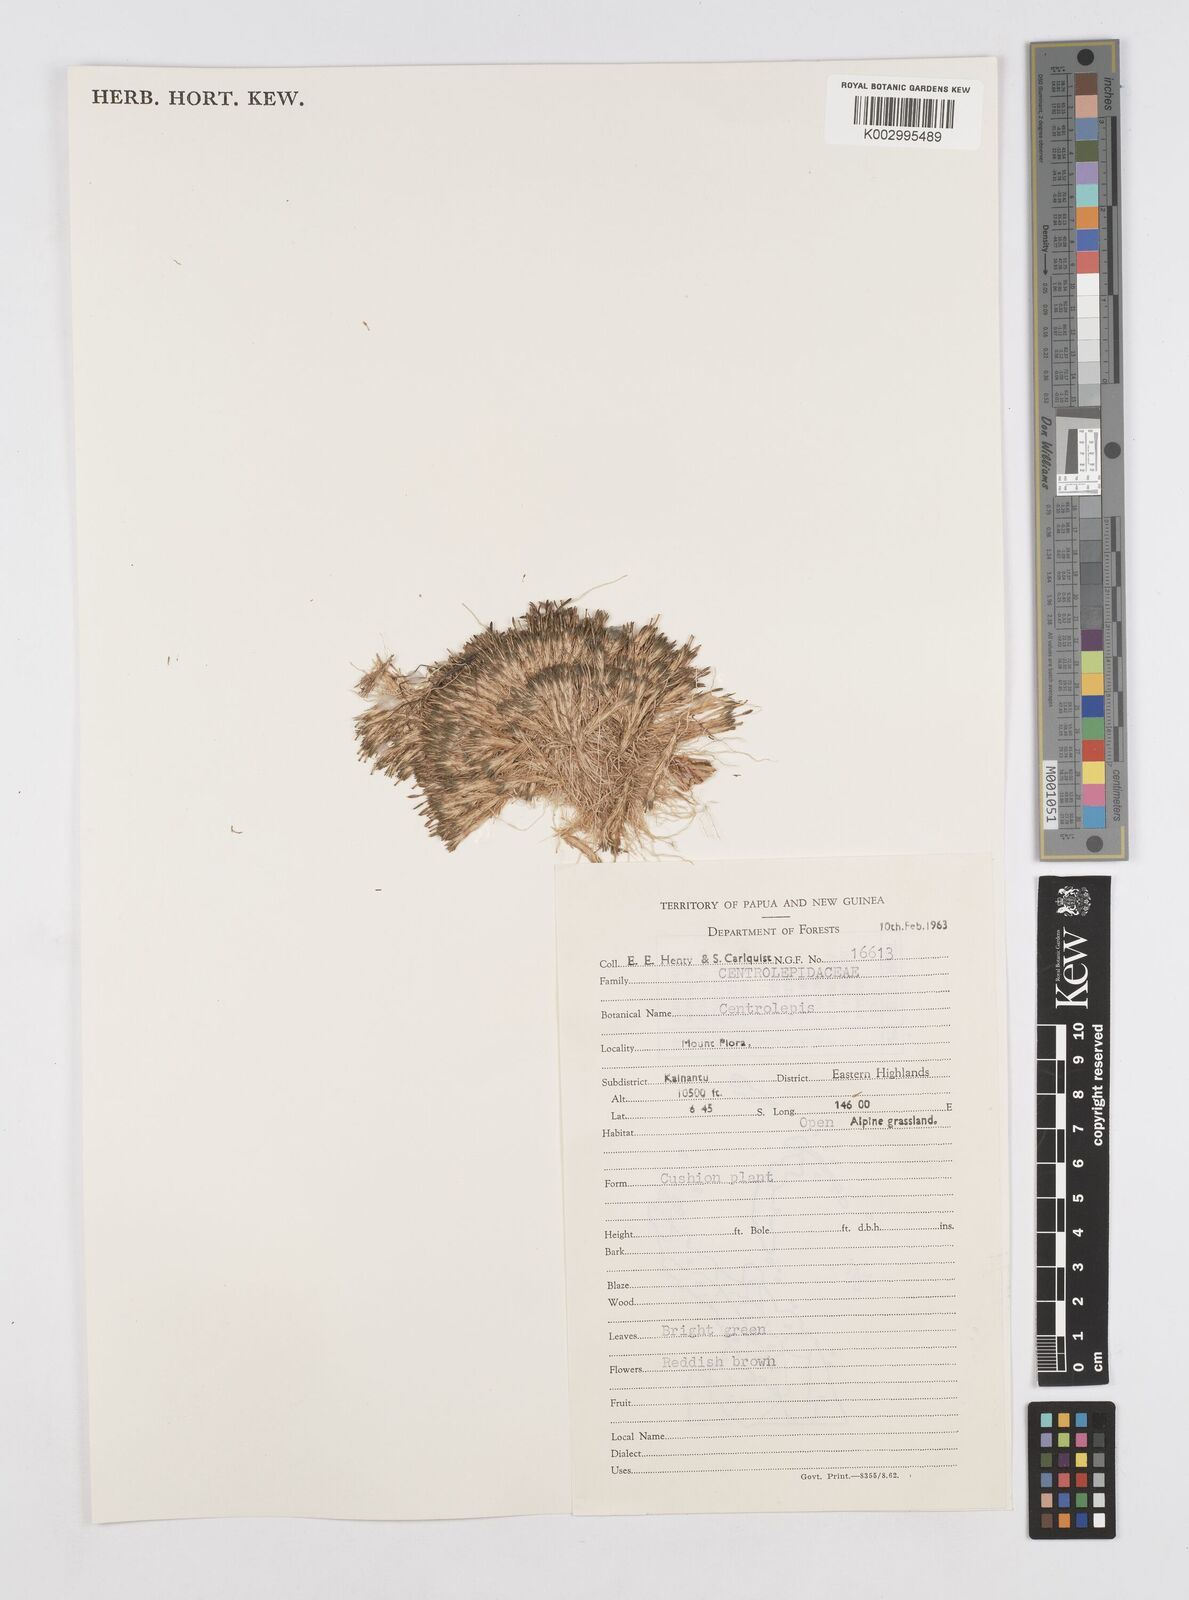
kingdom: Plantae
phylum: Tracheophyta
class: Liliopsida
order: Poales
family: Restionaceae
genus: Centrolepis
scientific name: Centrolepis
